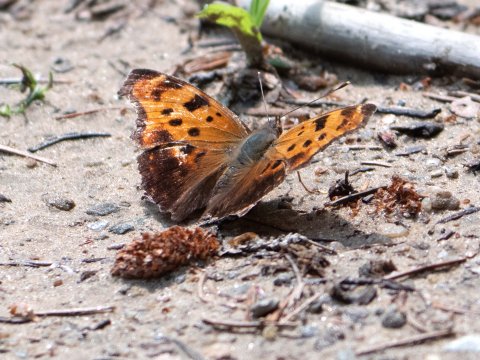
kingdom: Animalia
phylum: Arthropoda
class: Insecta
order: Lepidoptera
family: Nymphalidae
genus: Polygonia
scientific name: Polygonia comma
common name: Eastern Comma
